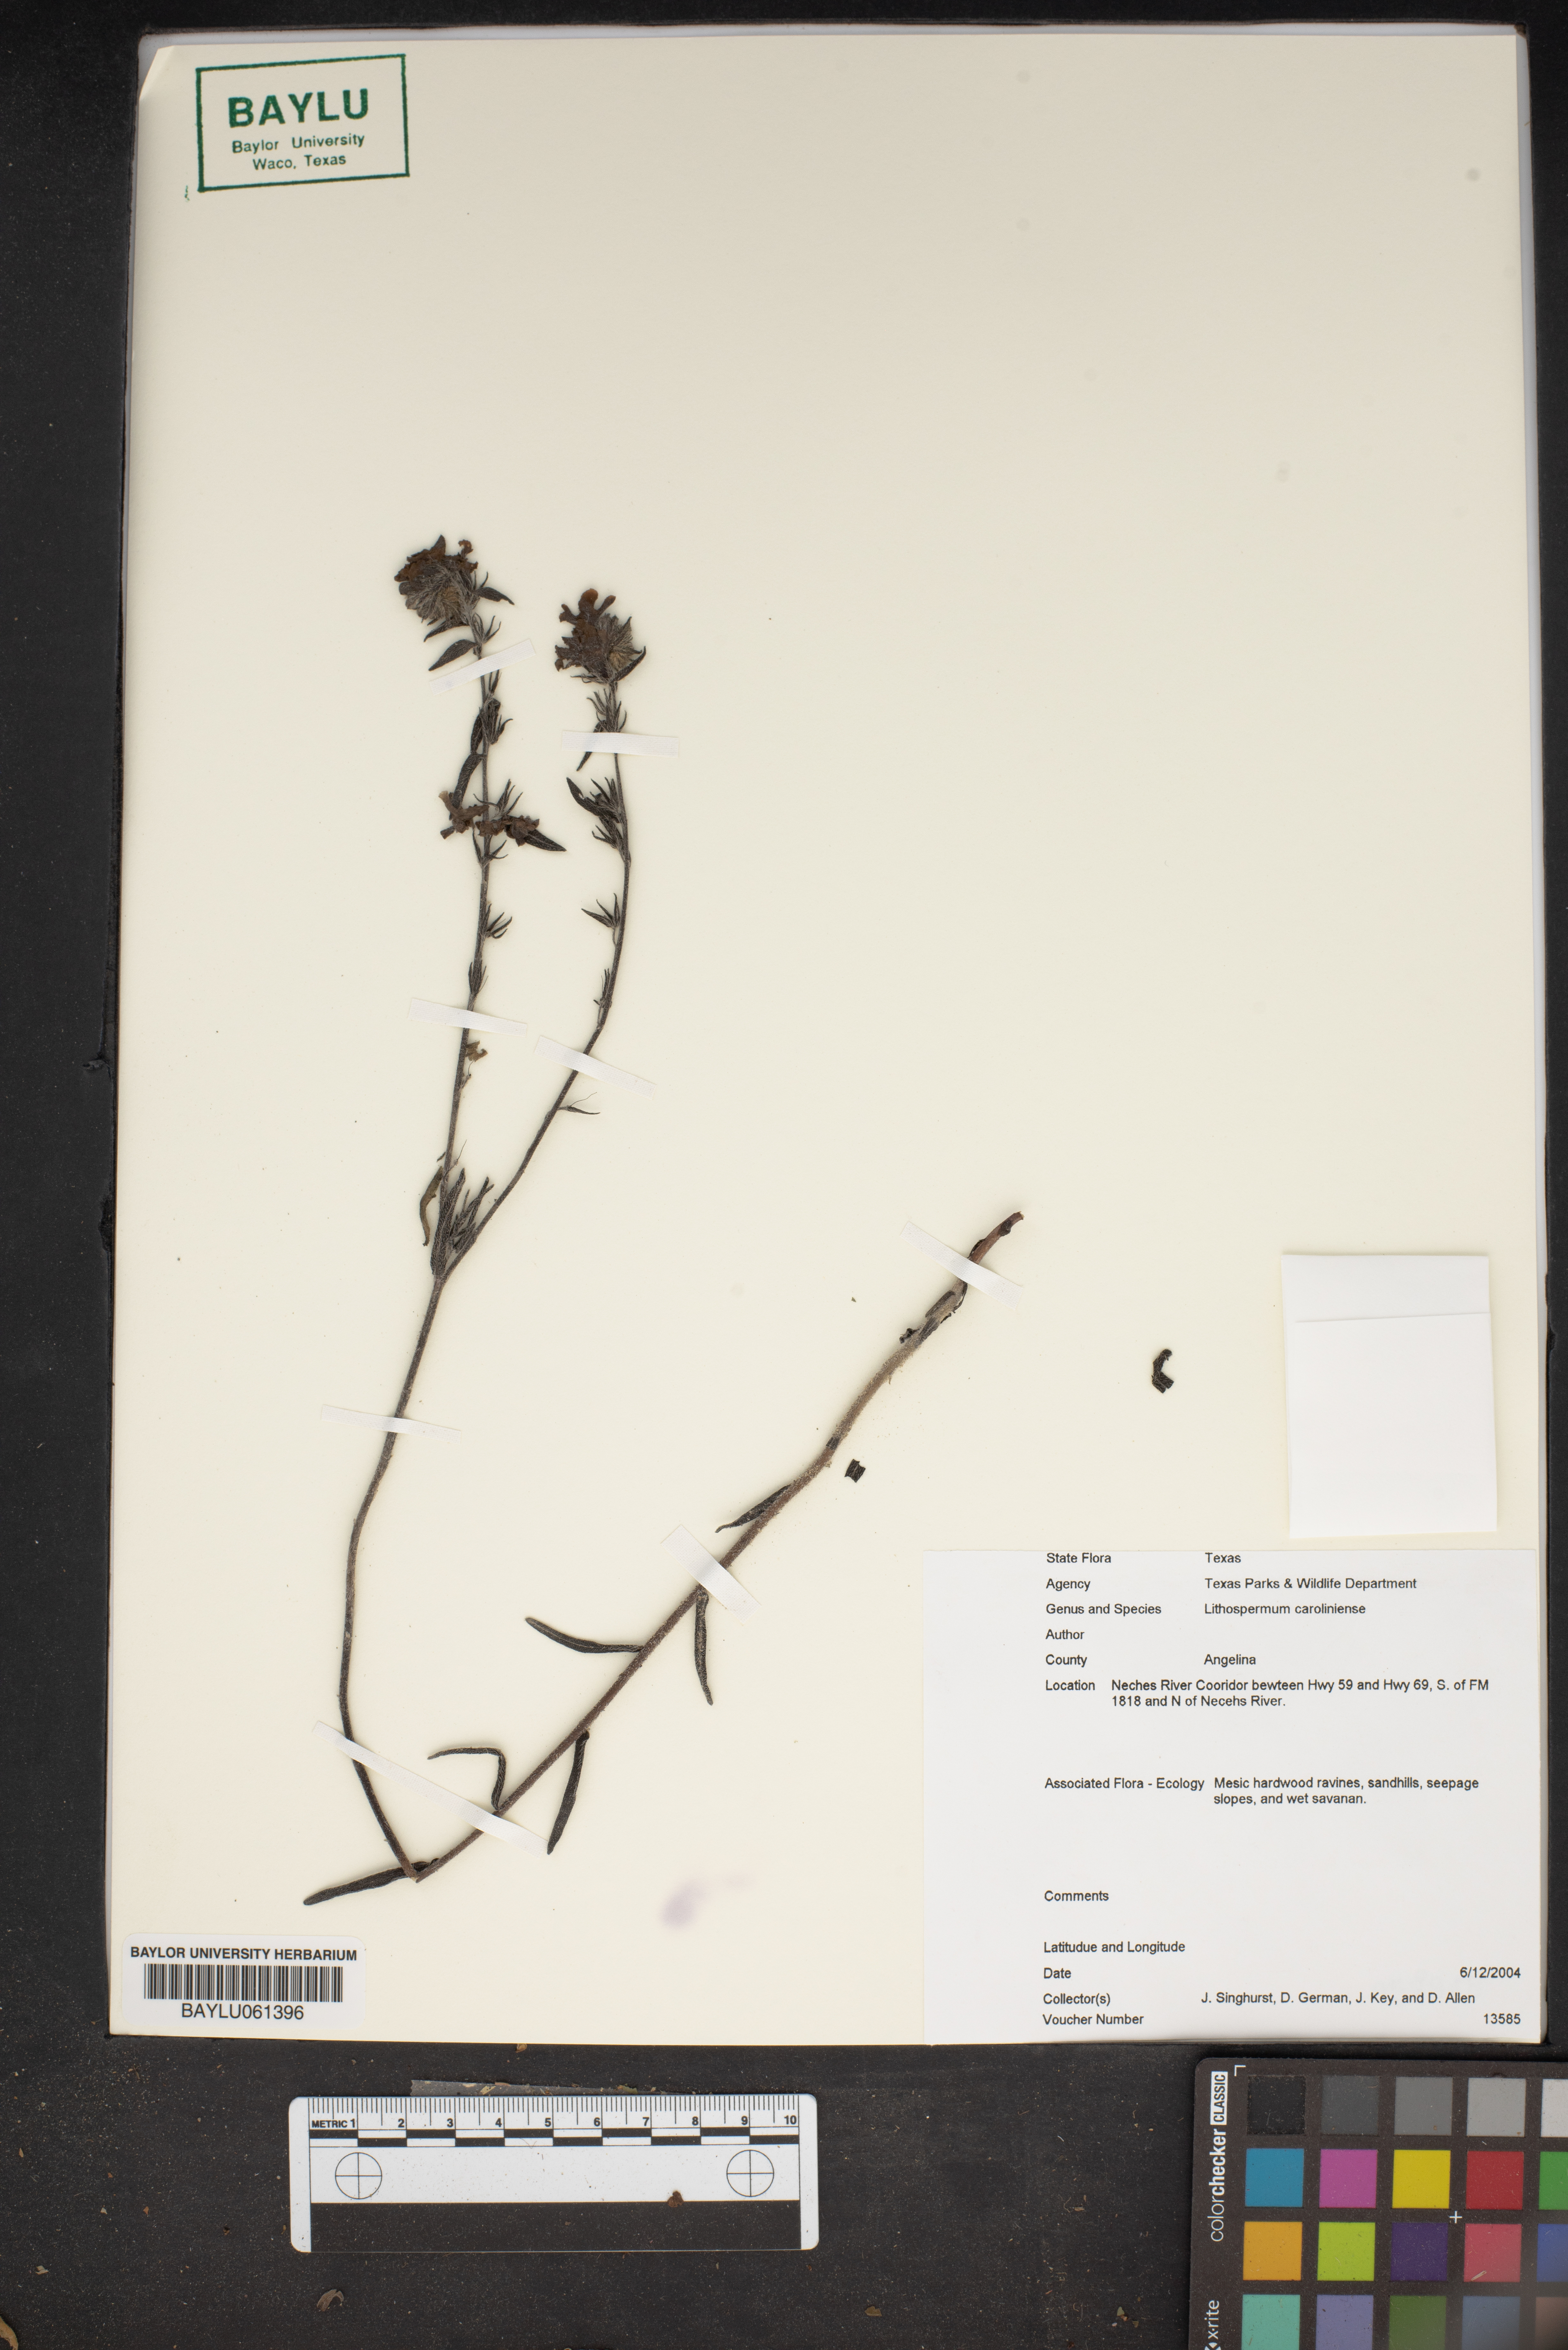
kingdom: Plantae
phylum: Tracheophyta
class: Magnoliopsida
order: Boraginales
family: Boraginaceae
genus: Lithospermum
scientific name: Lithospermum caroliniense
